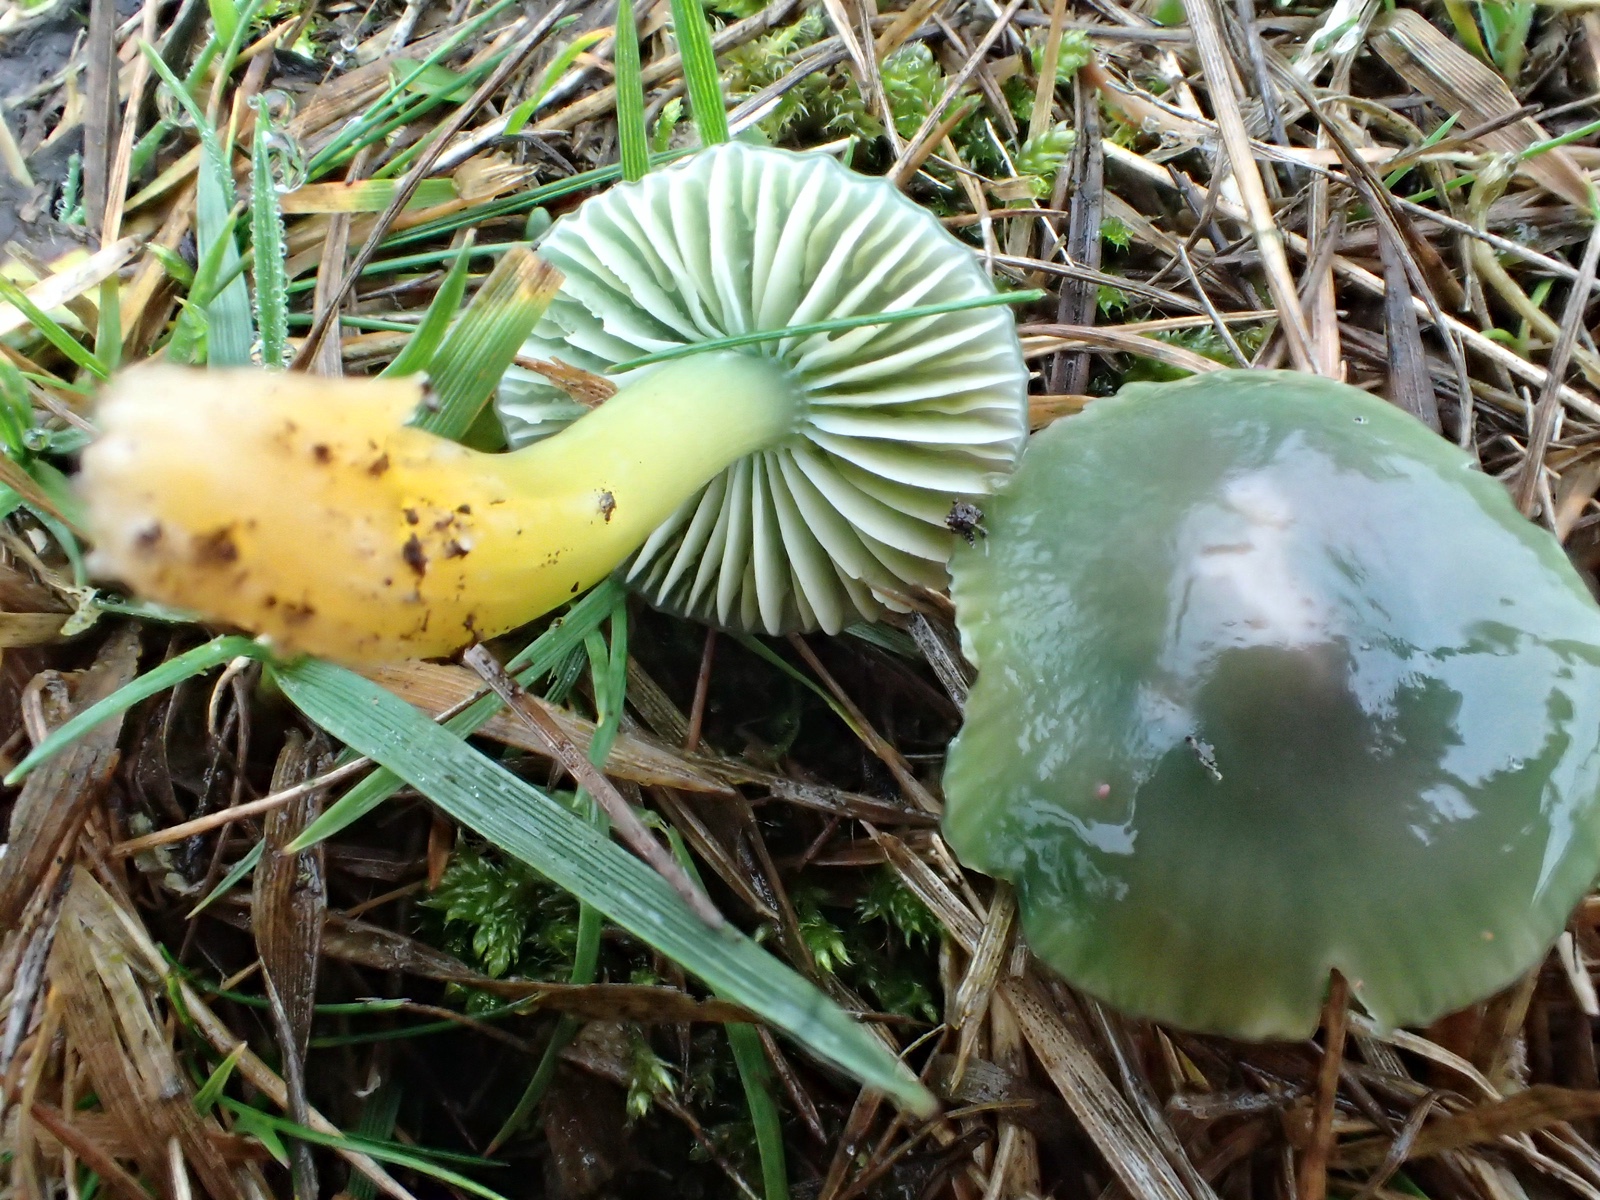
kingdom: Fungi
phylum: Basidiomycota
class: Agaricomycetes
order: Agaricales
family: Hygrophoraceae
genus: Gliophorus
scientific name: Gliophorus psittacinus
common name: papegøje-vokshat
